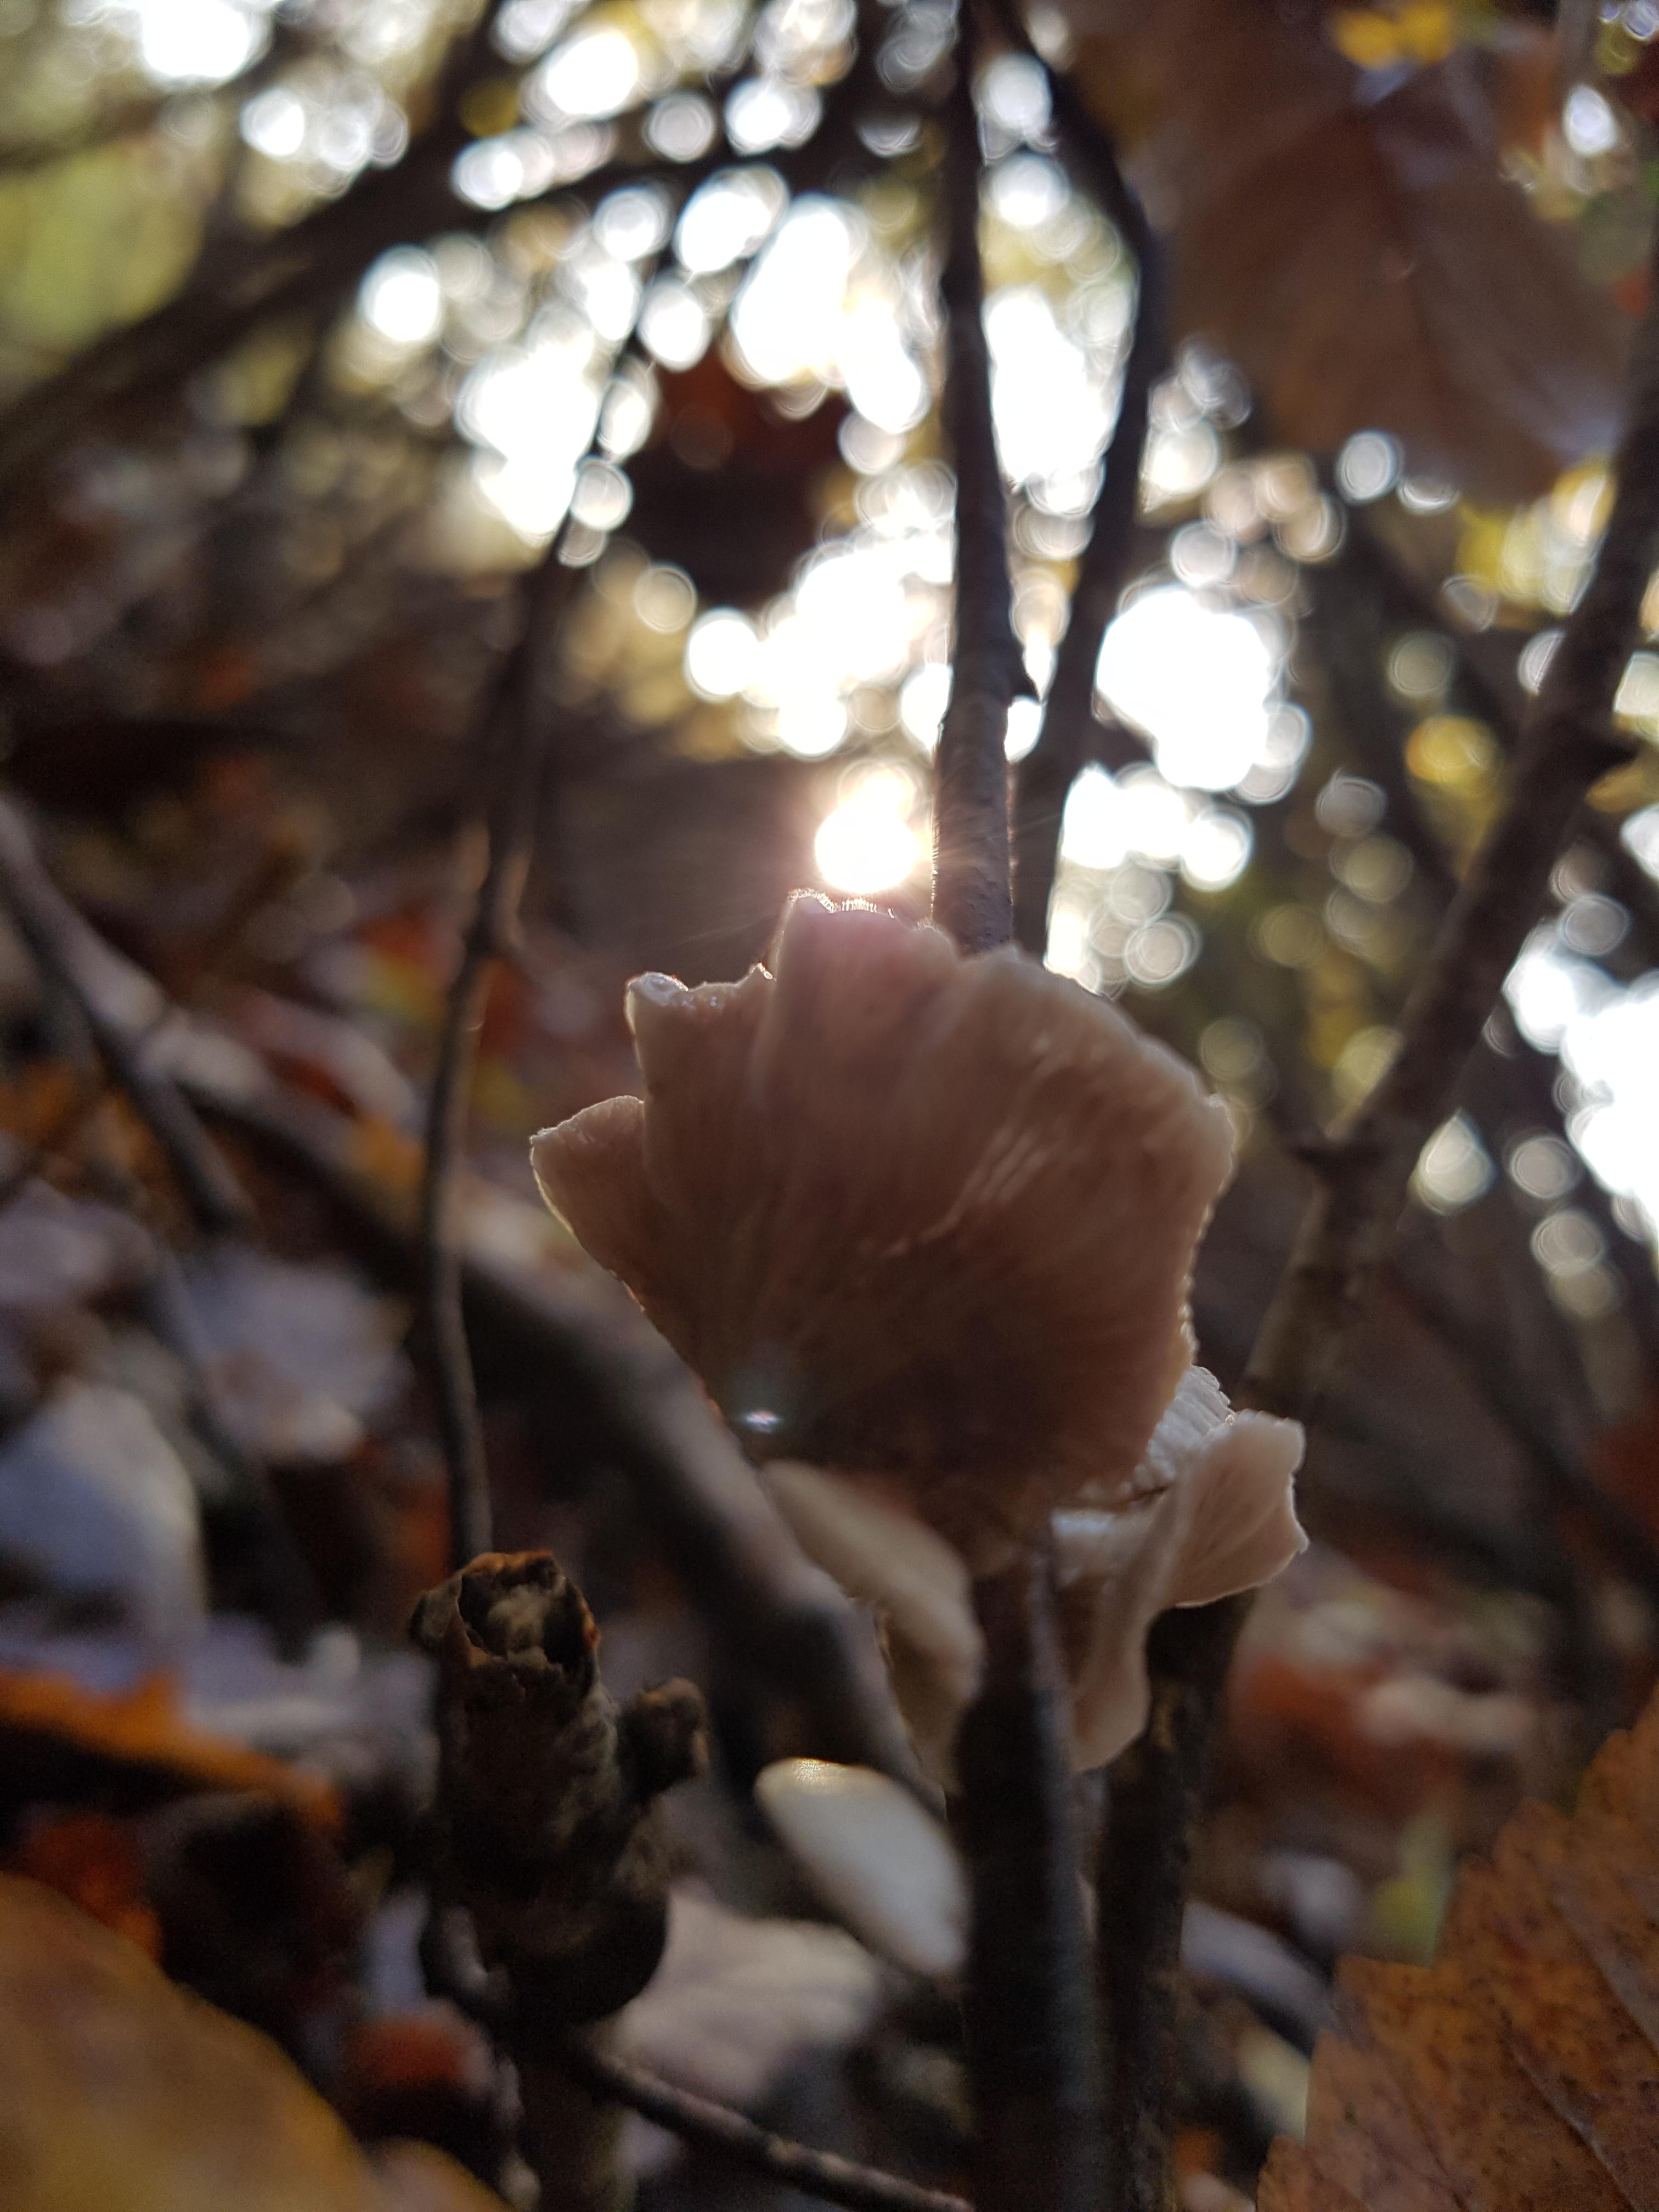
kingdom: Fungi
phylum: Basidiomycota
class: Agaricomycetes
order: Agaricales
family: Crepidotaceae
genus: Crepidotus
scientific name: Crepidotus
